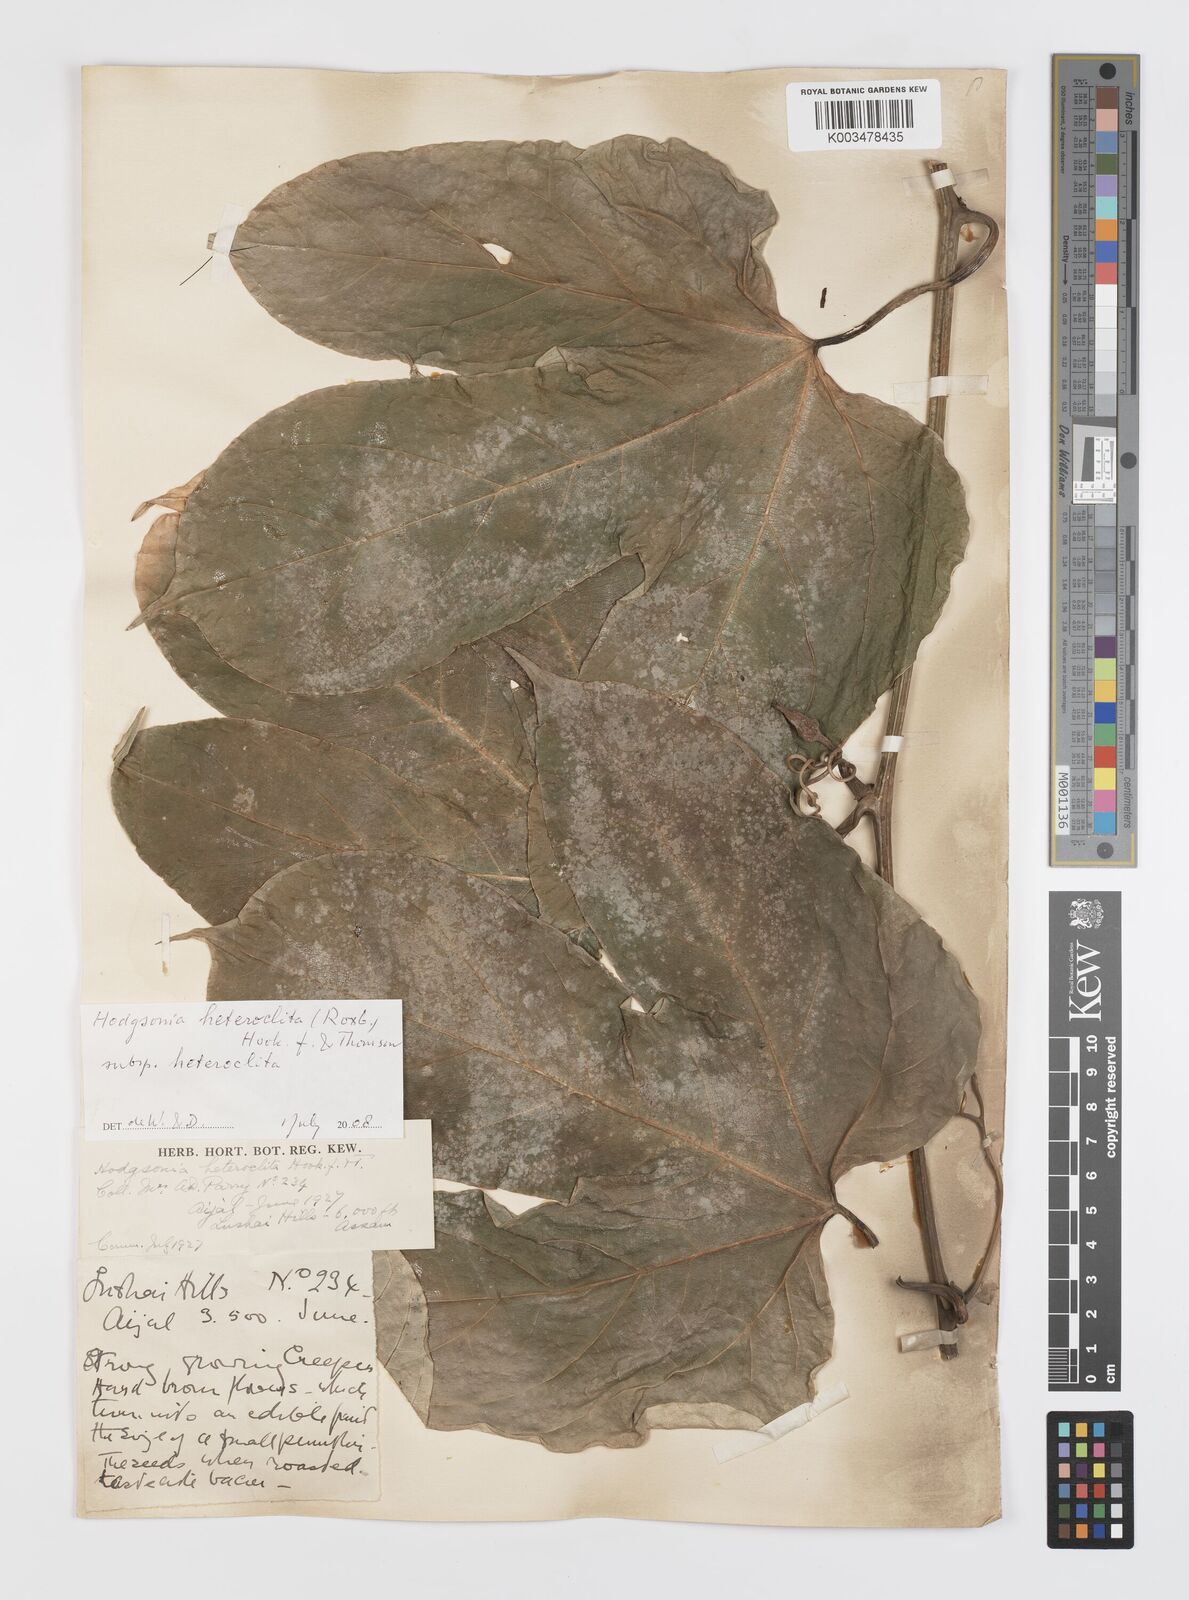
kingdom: Plantae
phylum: Tracheophyta
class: Magnoliopsida
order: Cucurbitales
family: Cucurbitaceae
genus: Hodgsonia
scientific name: Hodgsonia macrocarpa
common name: Chinese lardfruit
